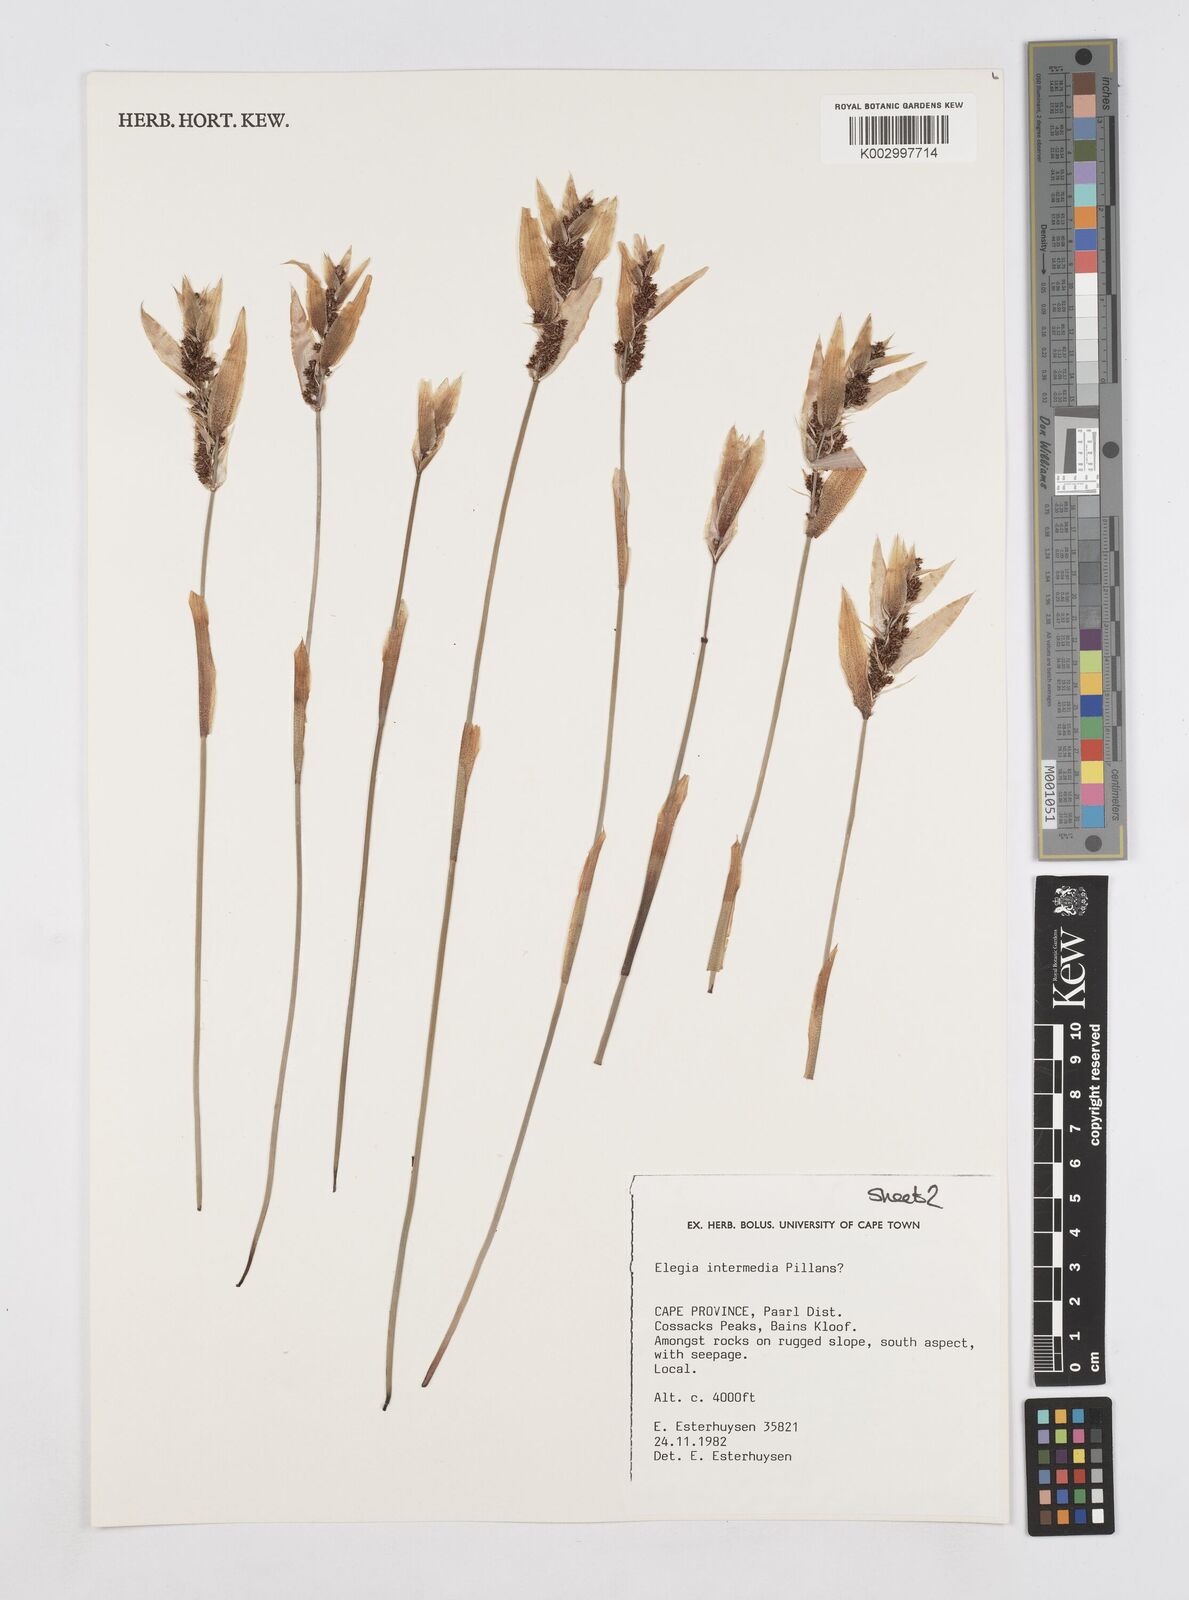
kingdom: Plantae
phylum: Tracheophyta
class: Liliopsida
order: Poales
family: Restionaceae
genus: Elegia
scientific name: Elegia intermedia
